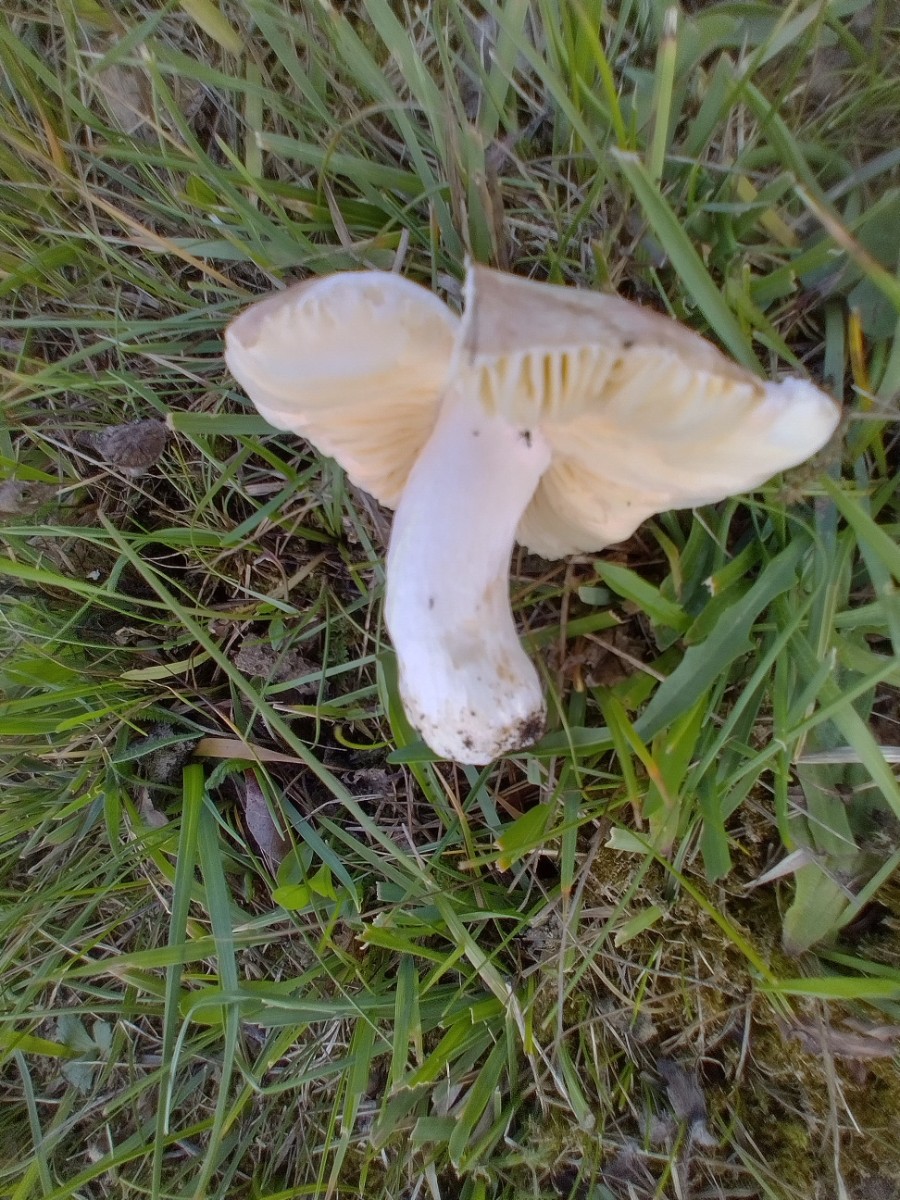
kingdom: Fungi
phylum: Basidiomycota
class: Agaricomycetes
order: Russulales
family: Russulaceae
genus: Russula
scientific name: Russula odorata
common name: duft-skørhat
